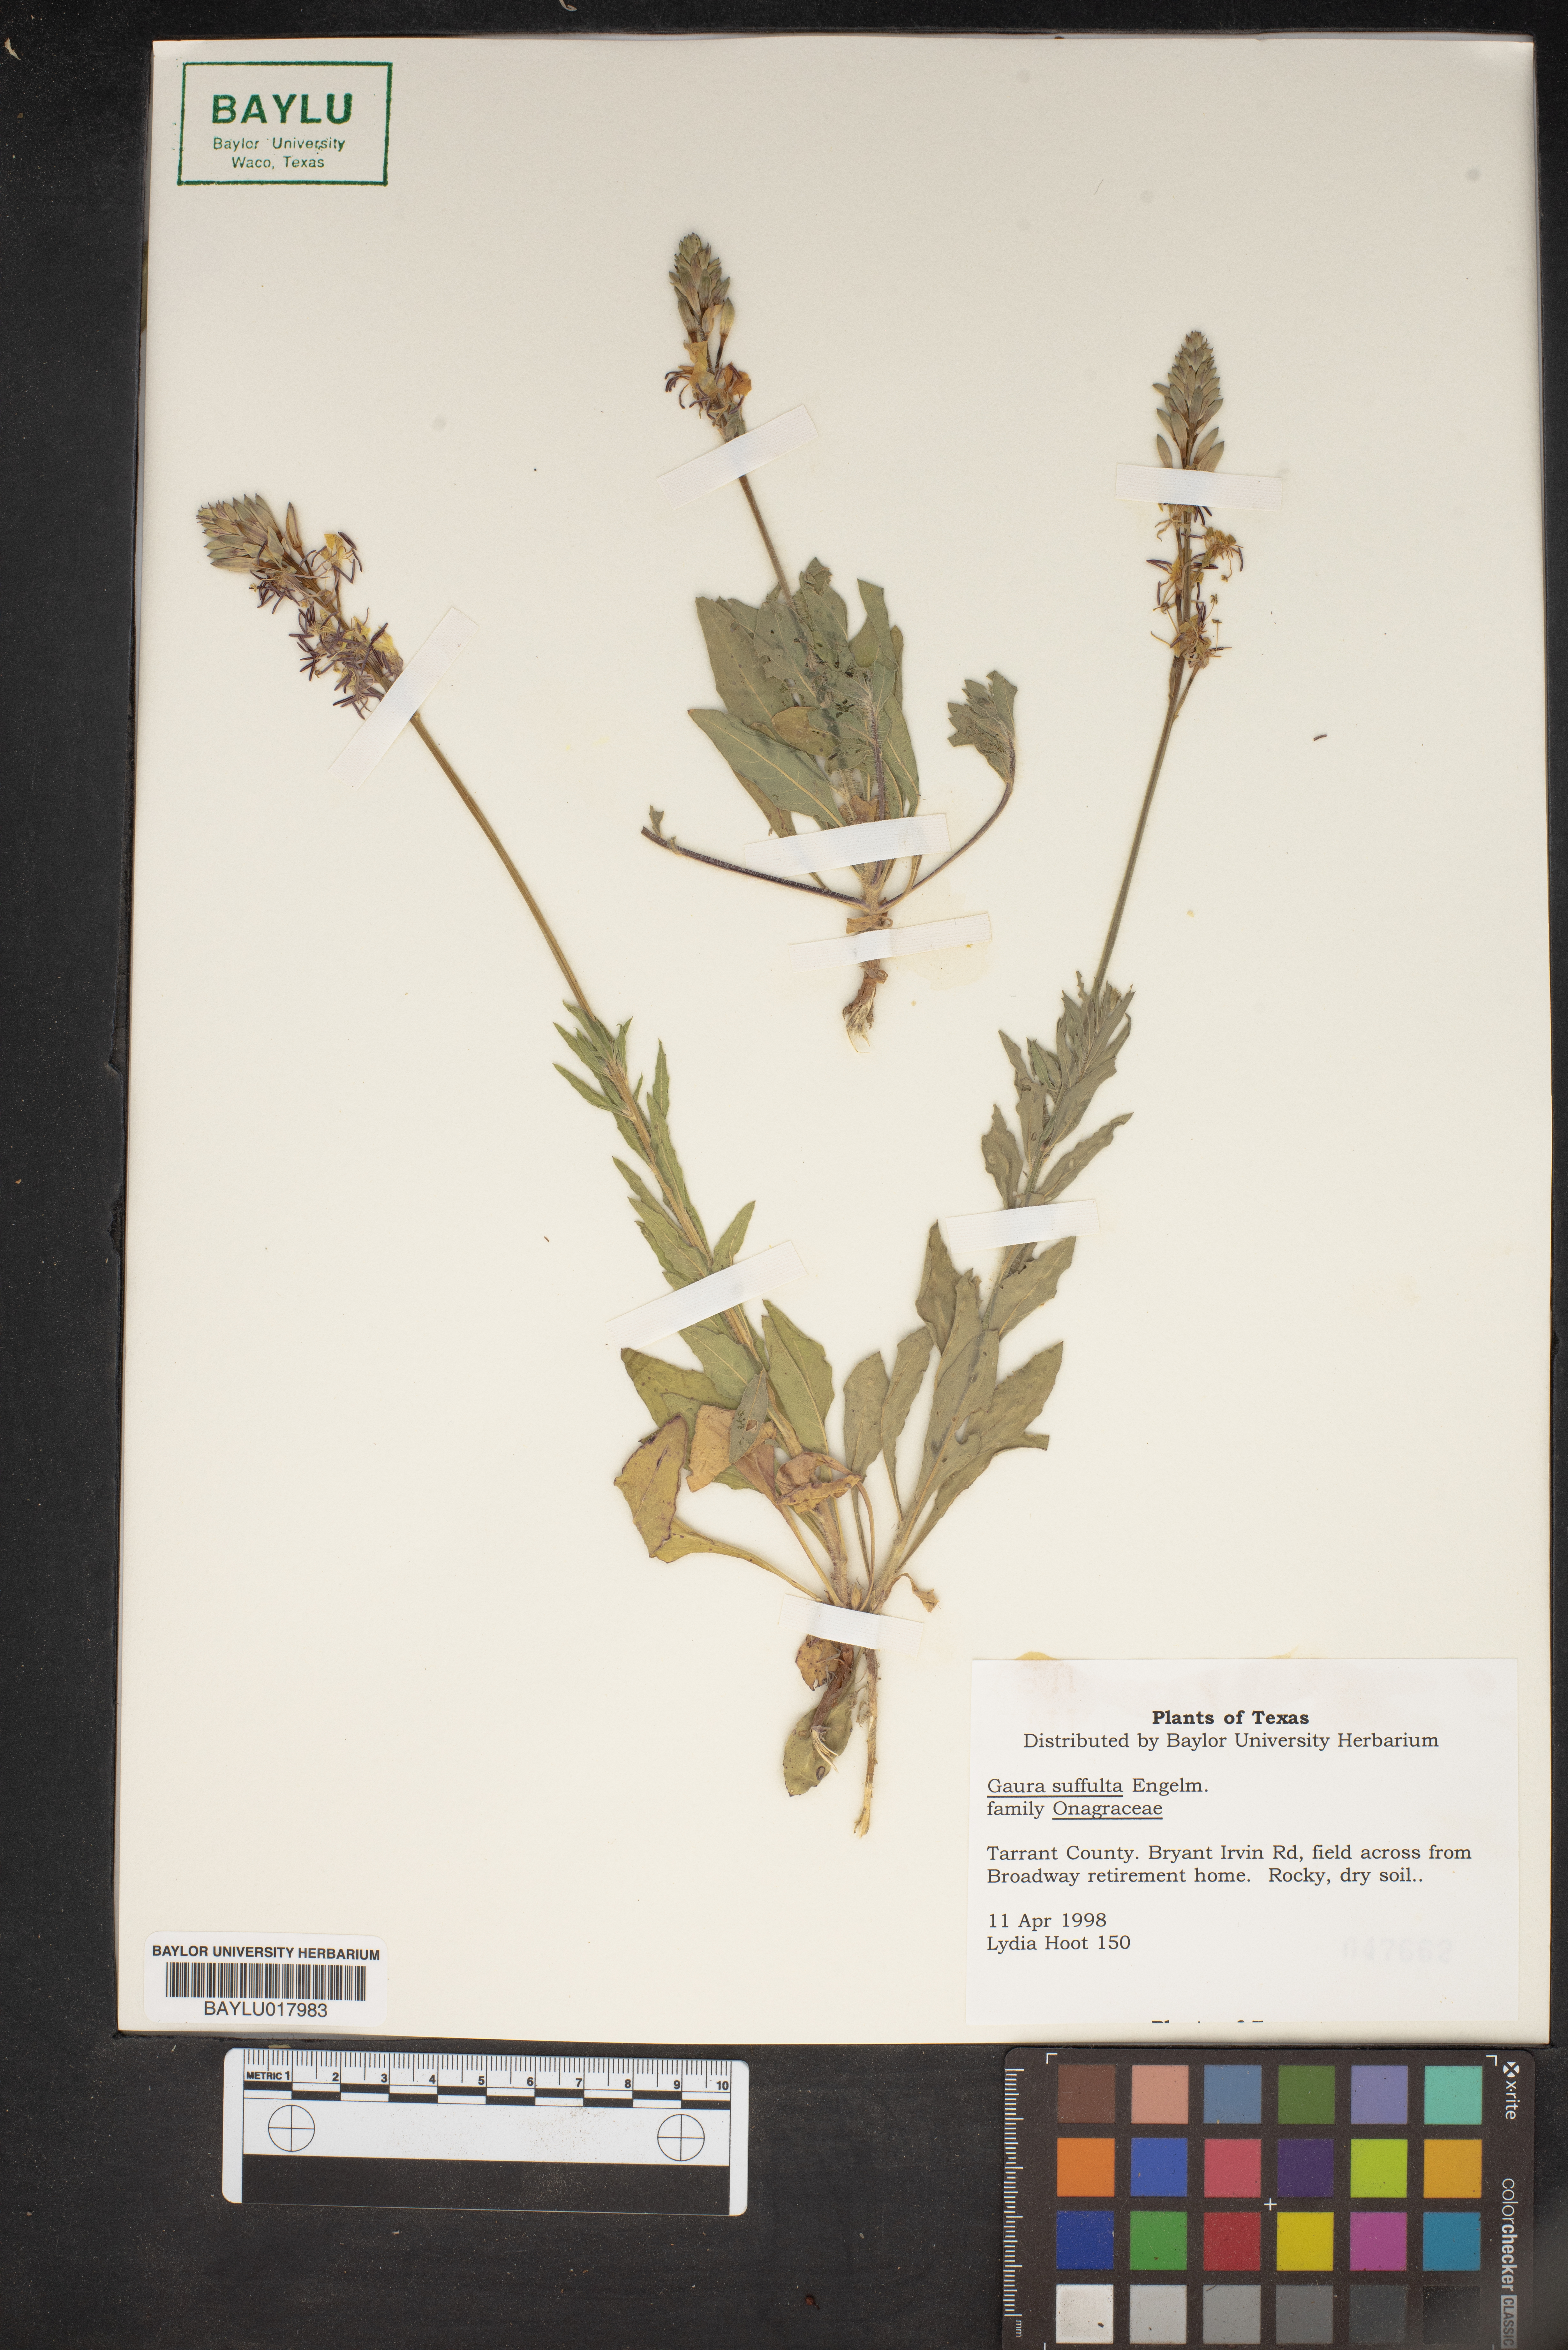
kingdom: Plantae
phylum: Tracheophyta
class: Magnoliopsida
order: Myrtales
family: Onagraceae
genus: Oenothera
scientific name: Oenothera Gaura suffulta
